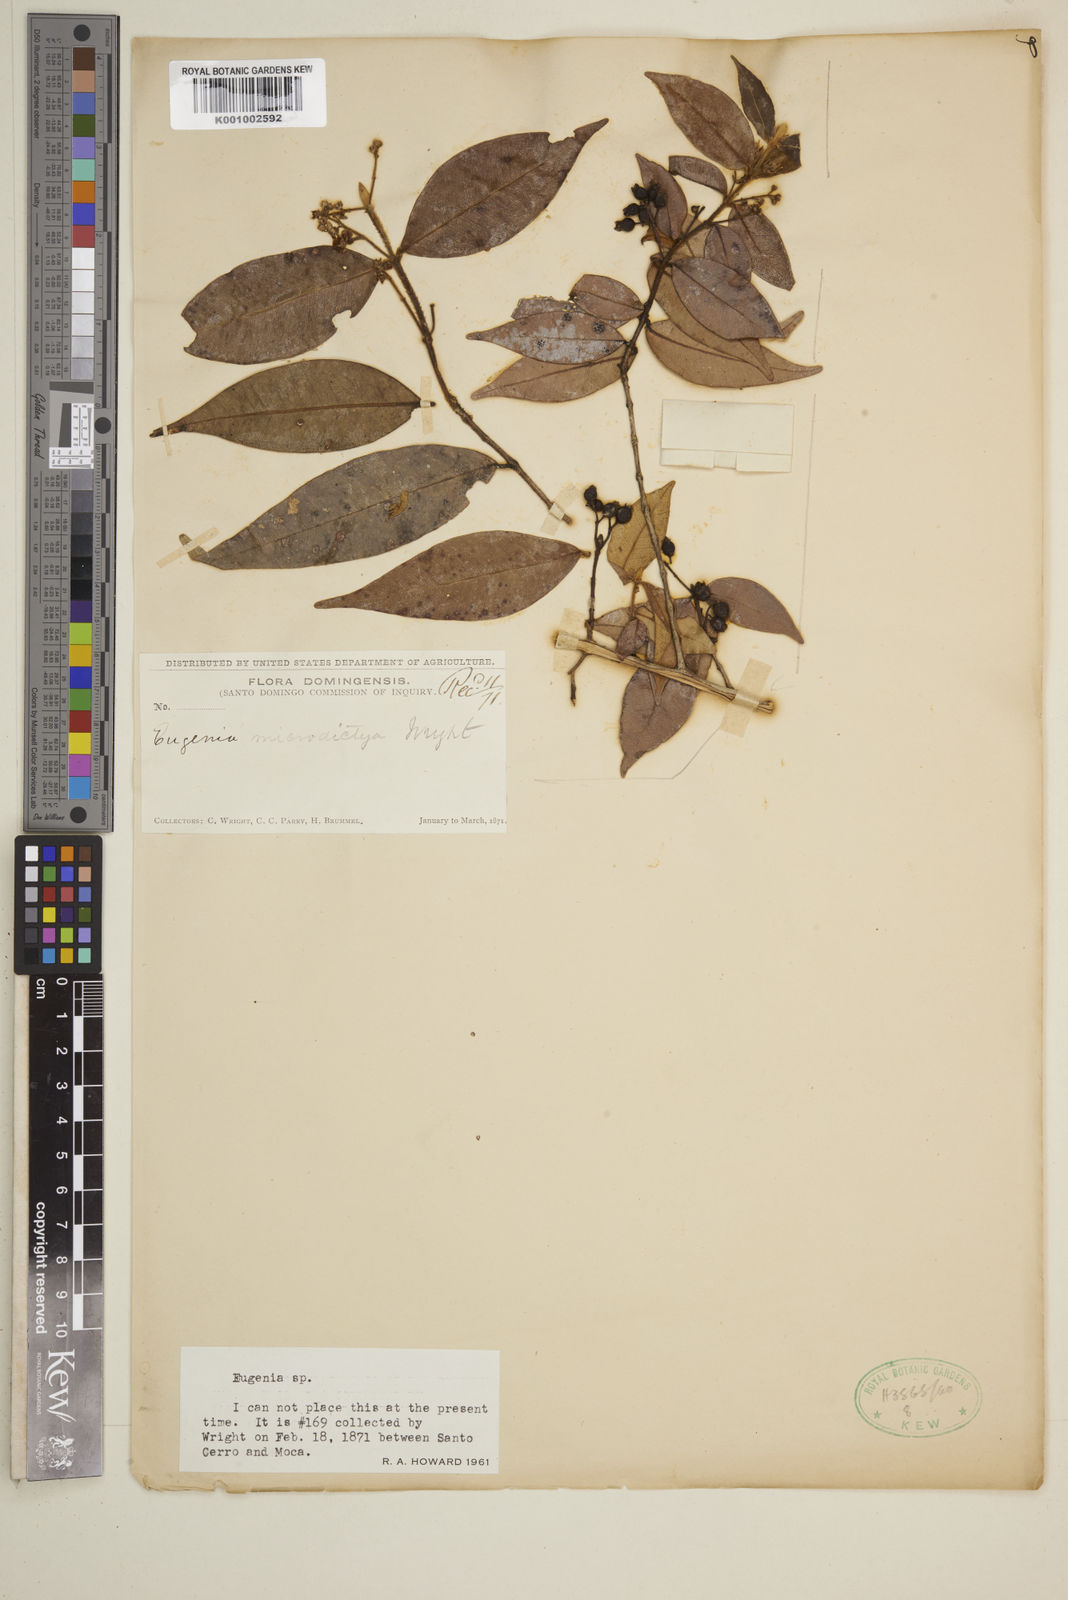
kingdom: Plantae
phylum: Tracheophyta
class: Magnoliopsida
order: Myrtales
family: Myrtaceae
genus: Eugenia
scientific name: Eugenia
